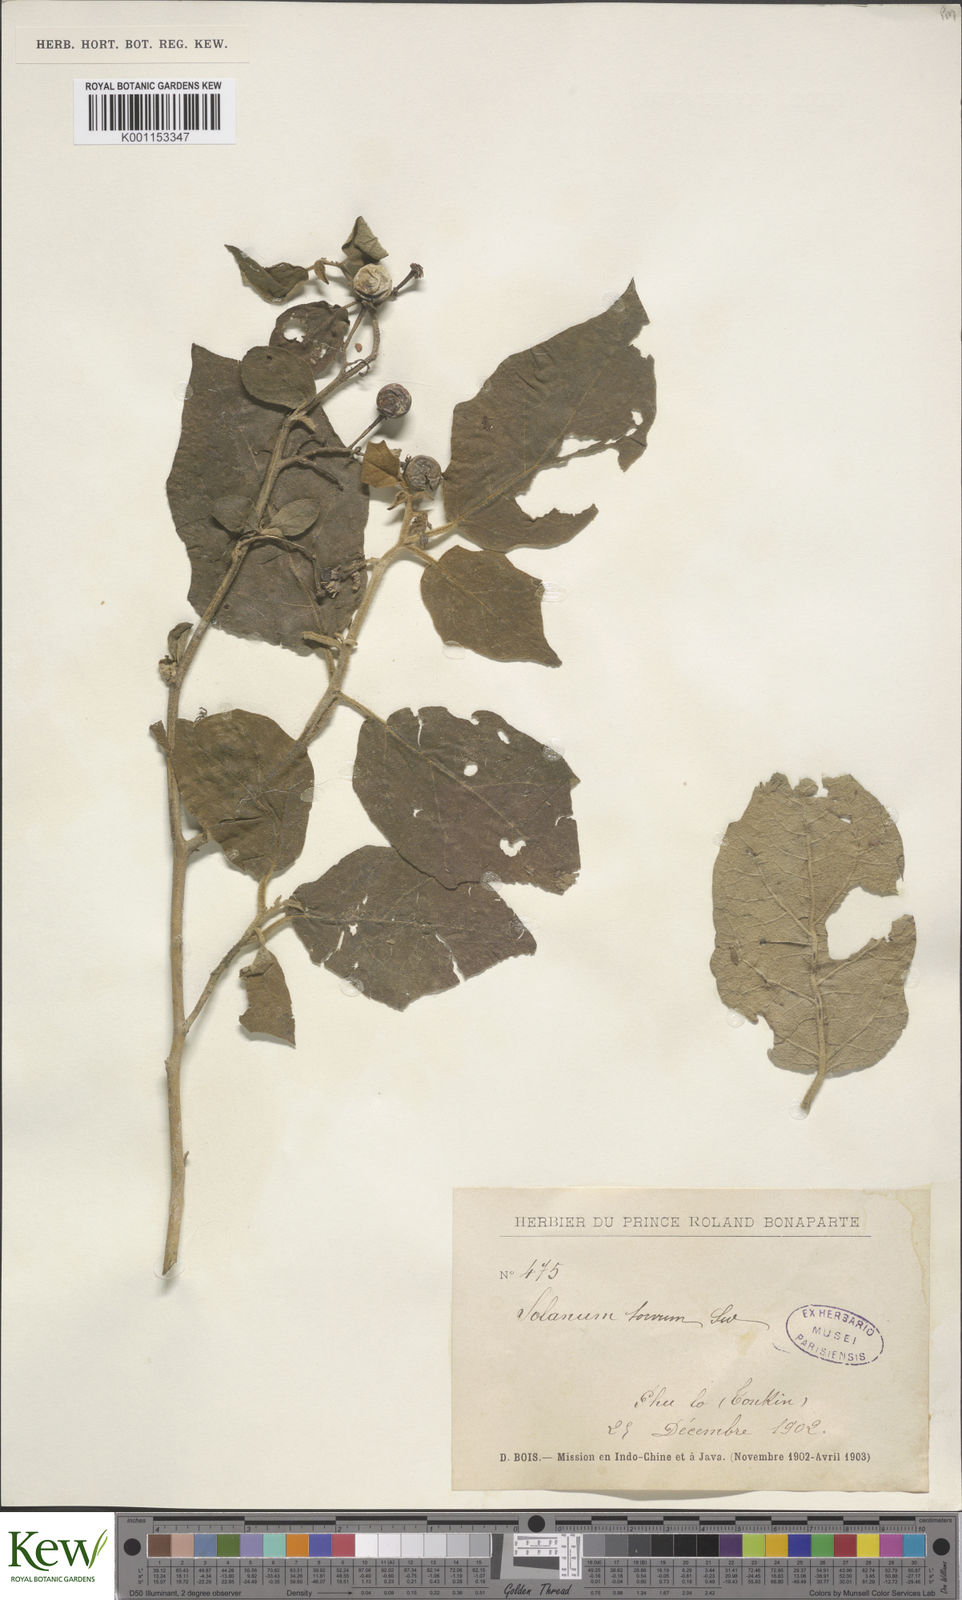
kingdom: Plantae
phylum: Tracheophyta
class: Magnoliopsida
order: Solanales
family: Solanaceae
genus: Solanum
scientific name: Solanum torvum
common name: Turkey berry
